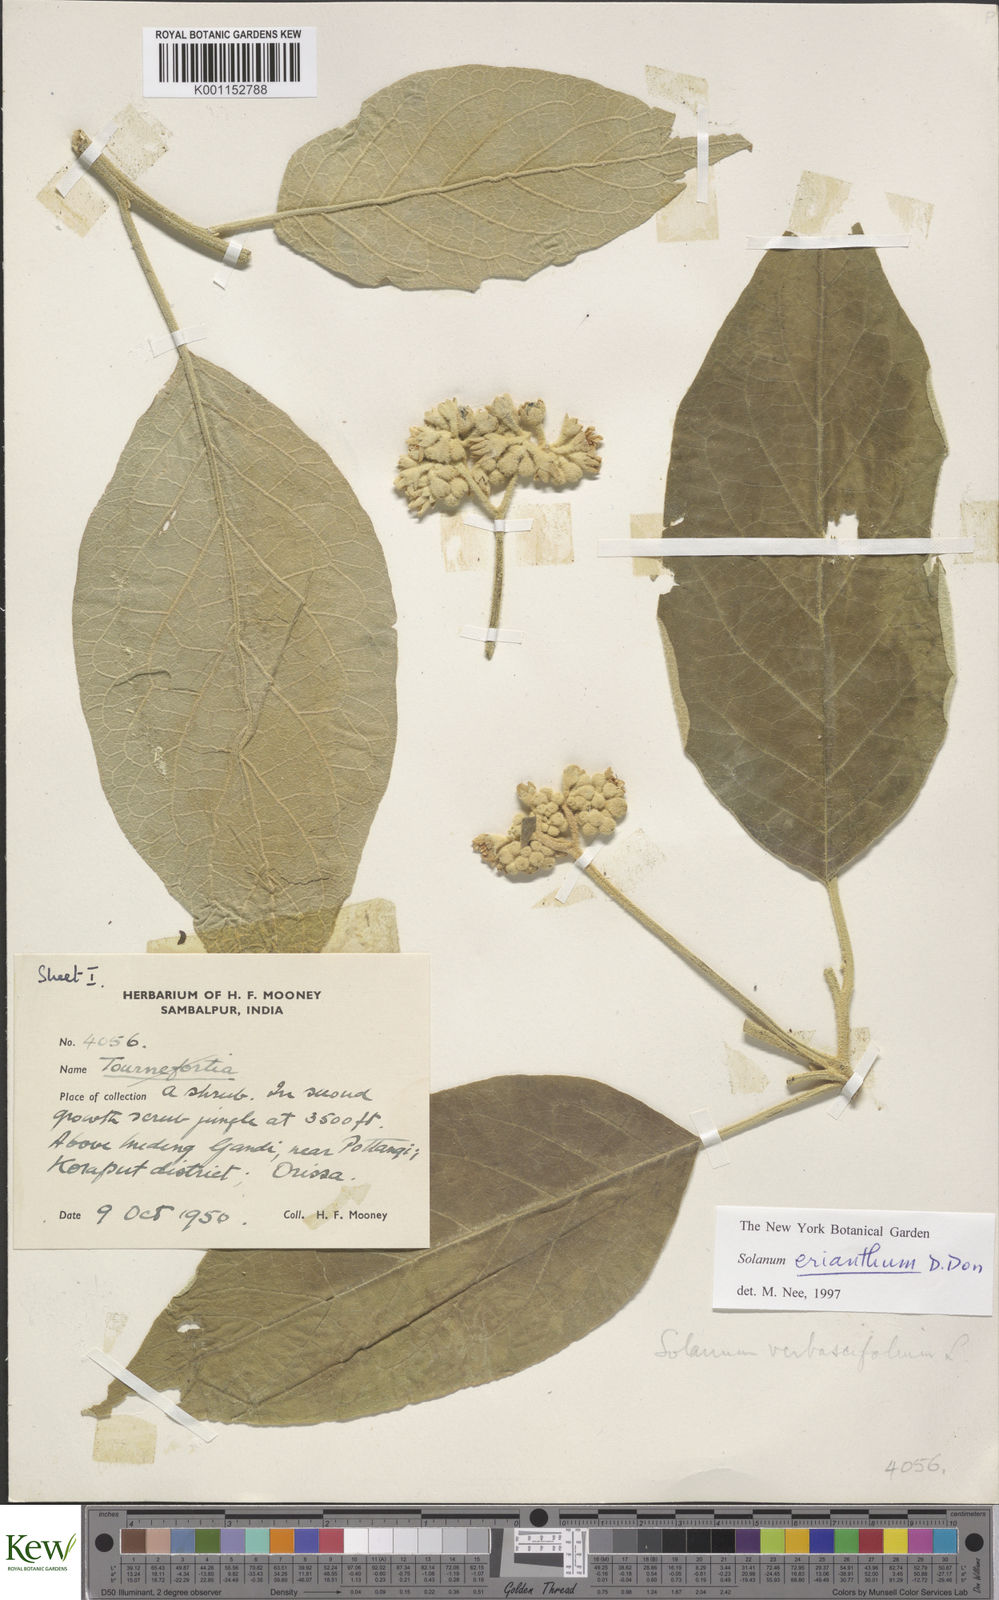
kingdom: Plantae
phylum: Tracheophyta
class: Magnoliopsida
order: Solanales
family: Solanaceae
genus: Solanum
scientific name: Solanum erianthum
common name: Tobacco-tree
